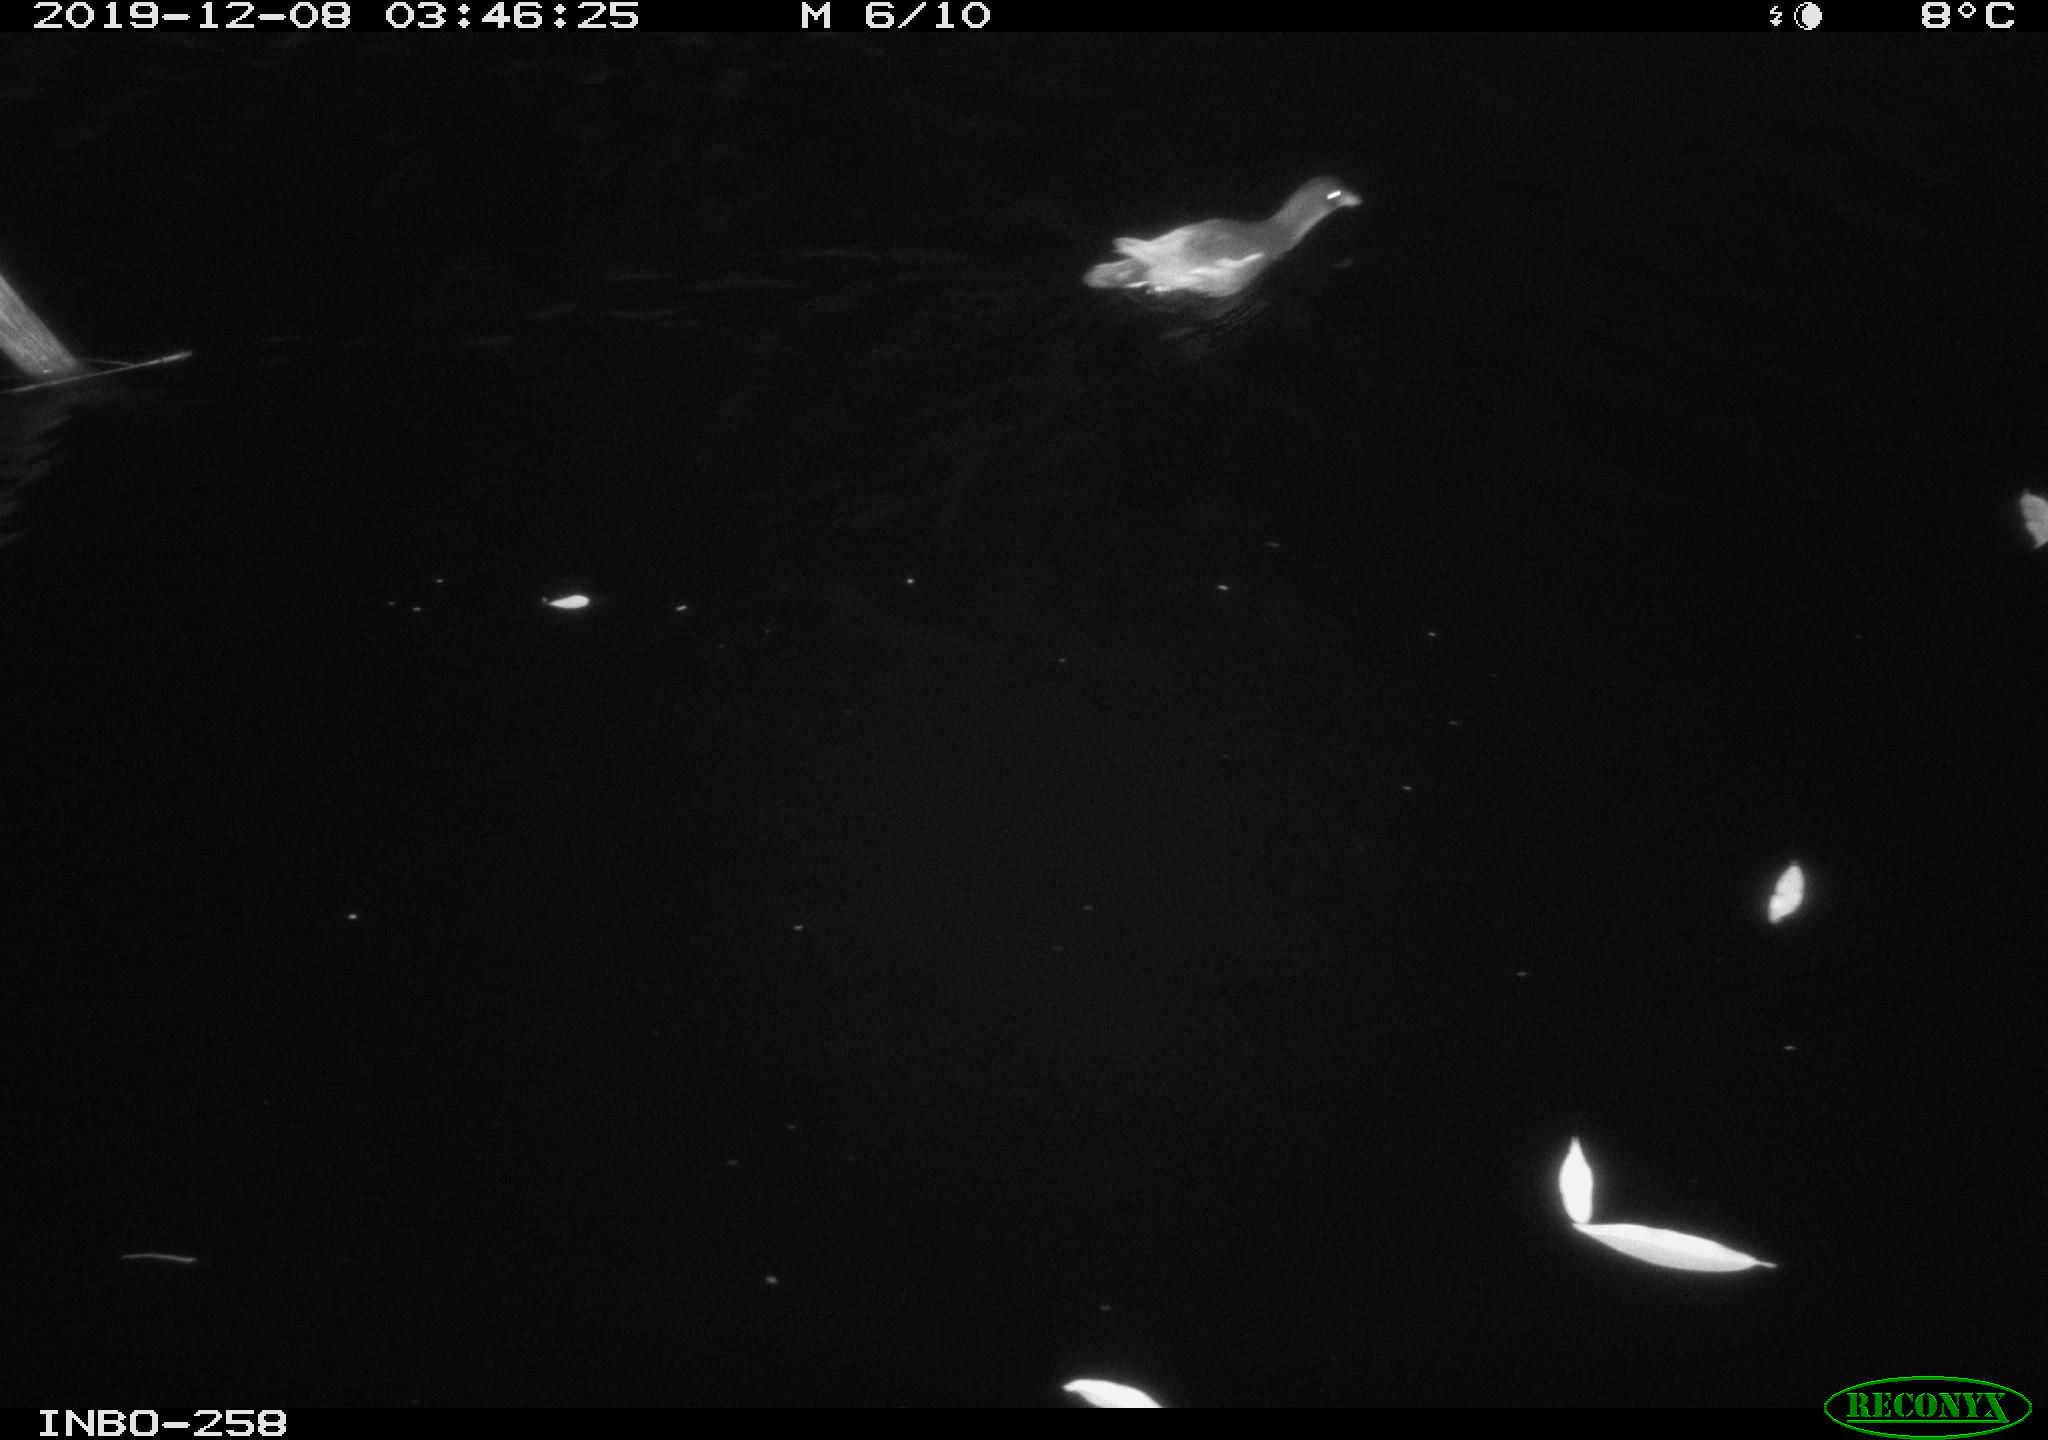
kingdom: Animalia
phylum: Chordata
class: Aves
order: Gruiformes
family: Rallidae
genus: Gallinula
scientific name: Gallinula chloropus
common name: Common moorhen
